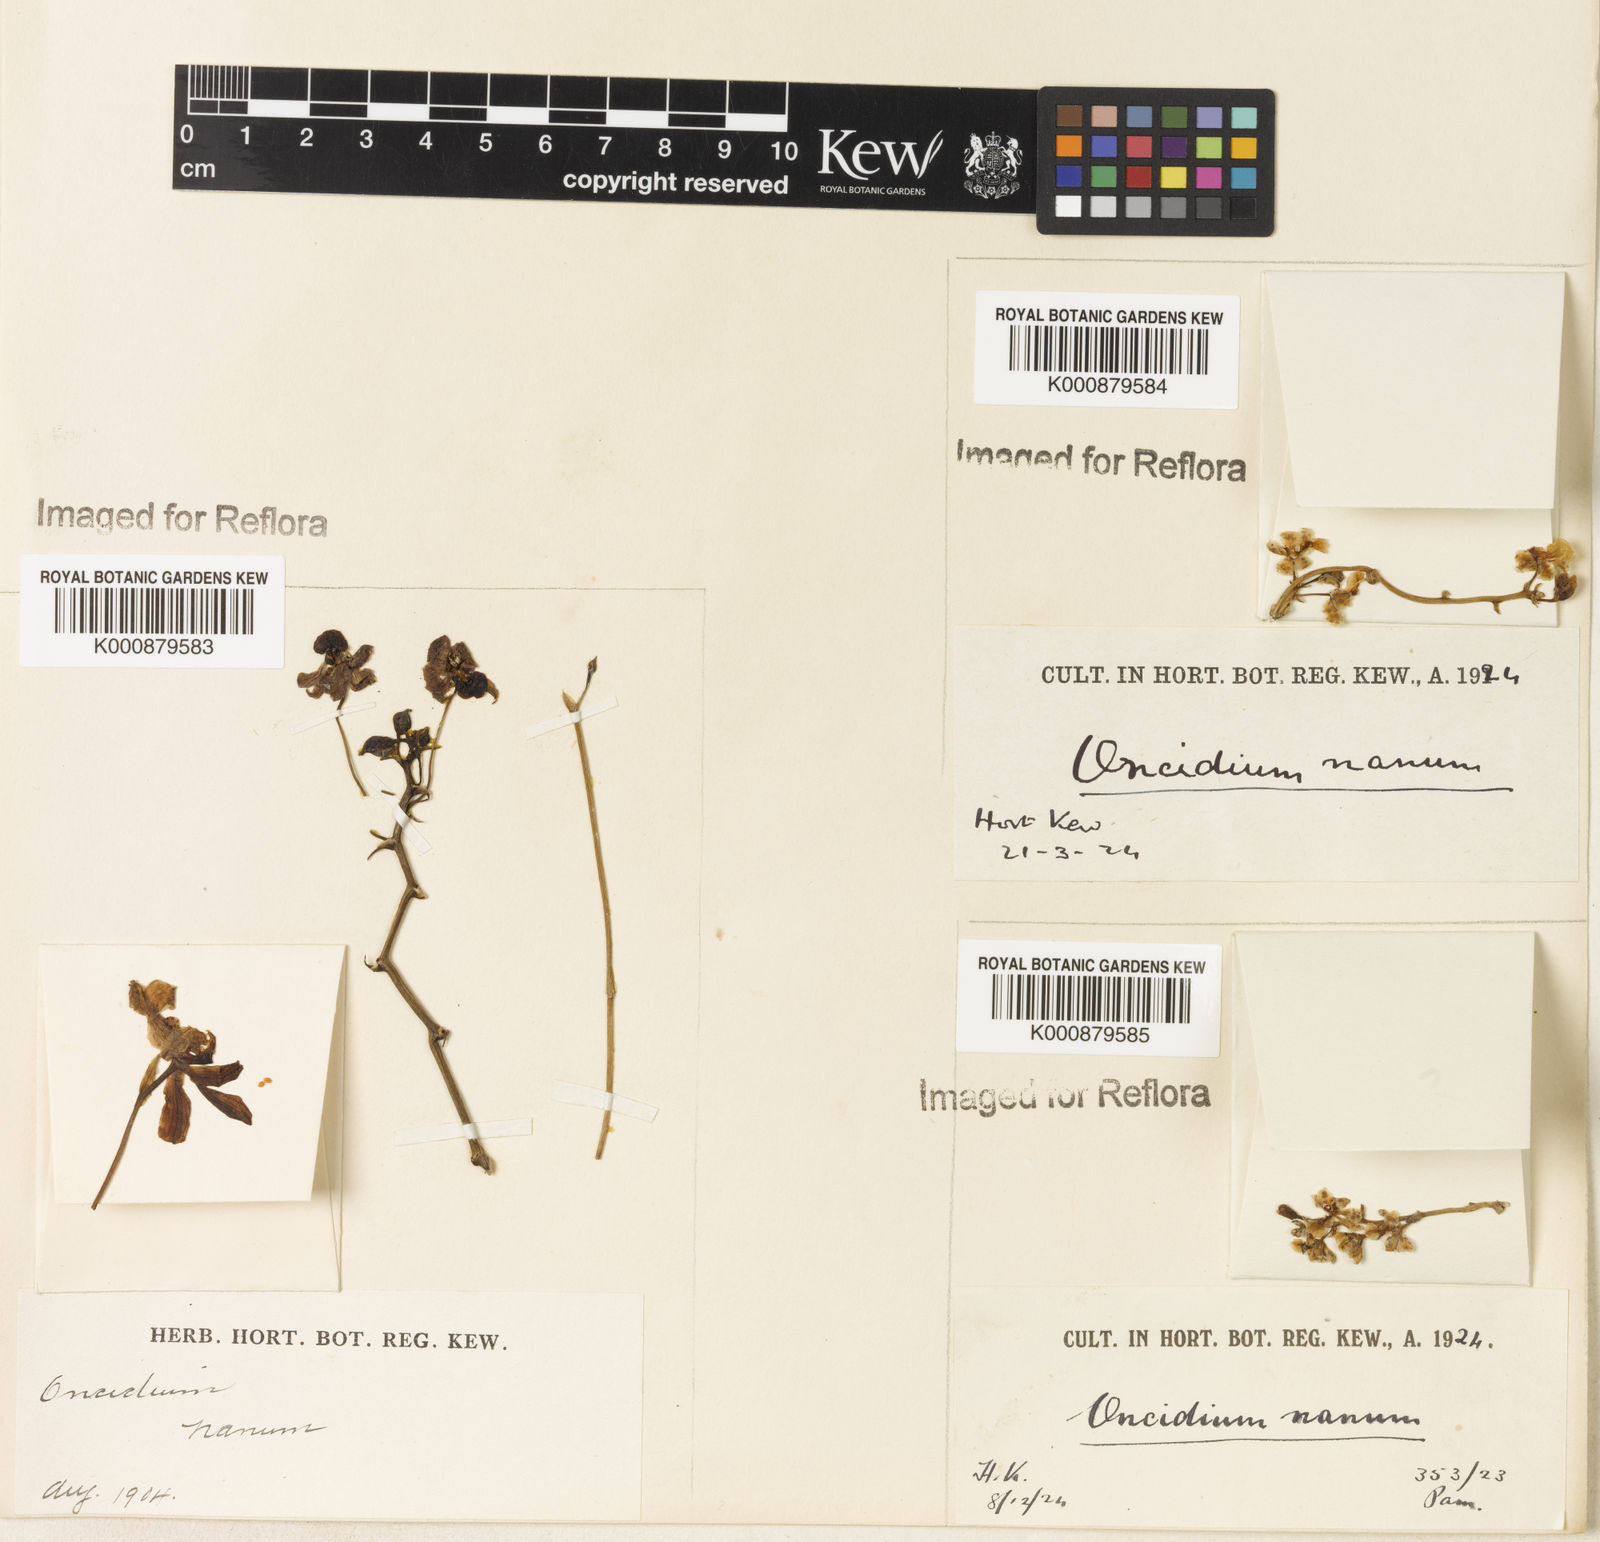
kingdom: Plantae
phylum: Tracheophyta
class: Liliopsida
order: Asparagales
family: Orchidaceae
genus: Trichocentrum
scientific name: Trichocentrum nanum
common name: Mule-ear orchid
